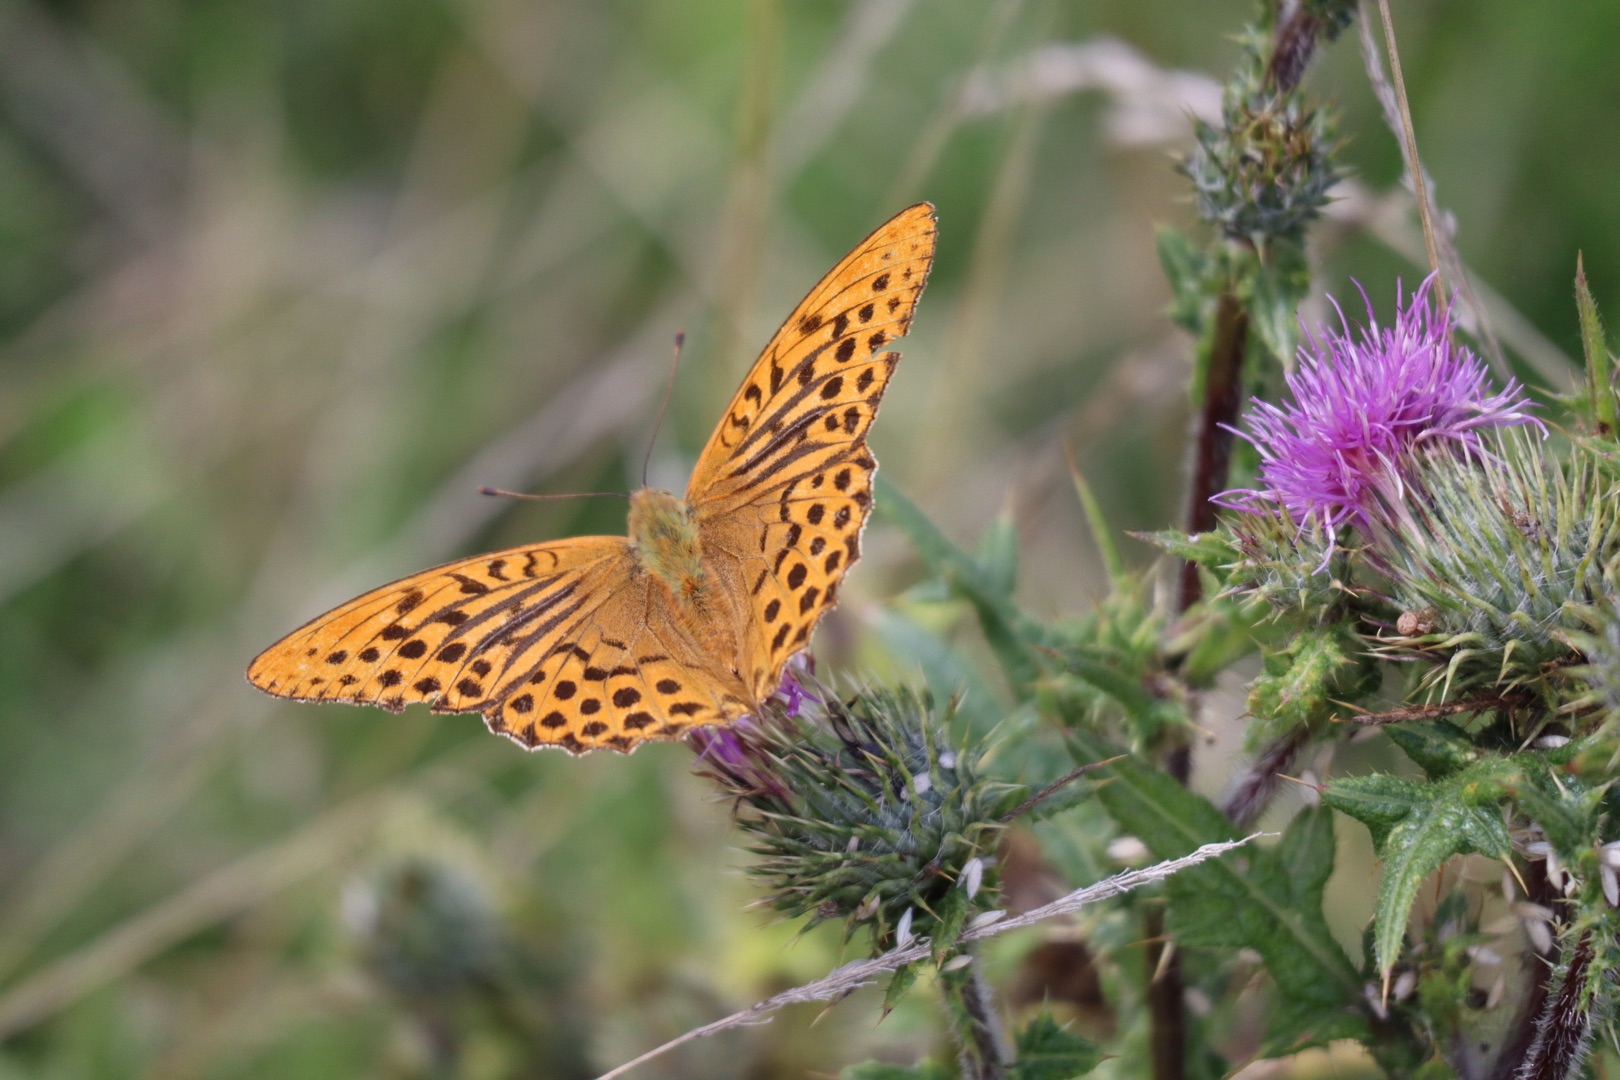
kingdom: Animalia
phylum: Arthropoda
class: Insecta
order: Lepidoptera
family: Nymphalidae
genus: Argynnis
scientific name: Argynnis paphia
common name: Kejserkåbe
